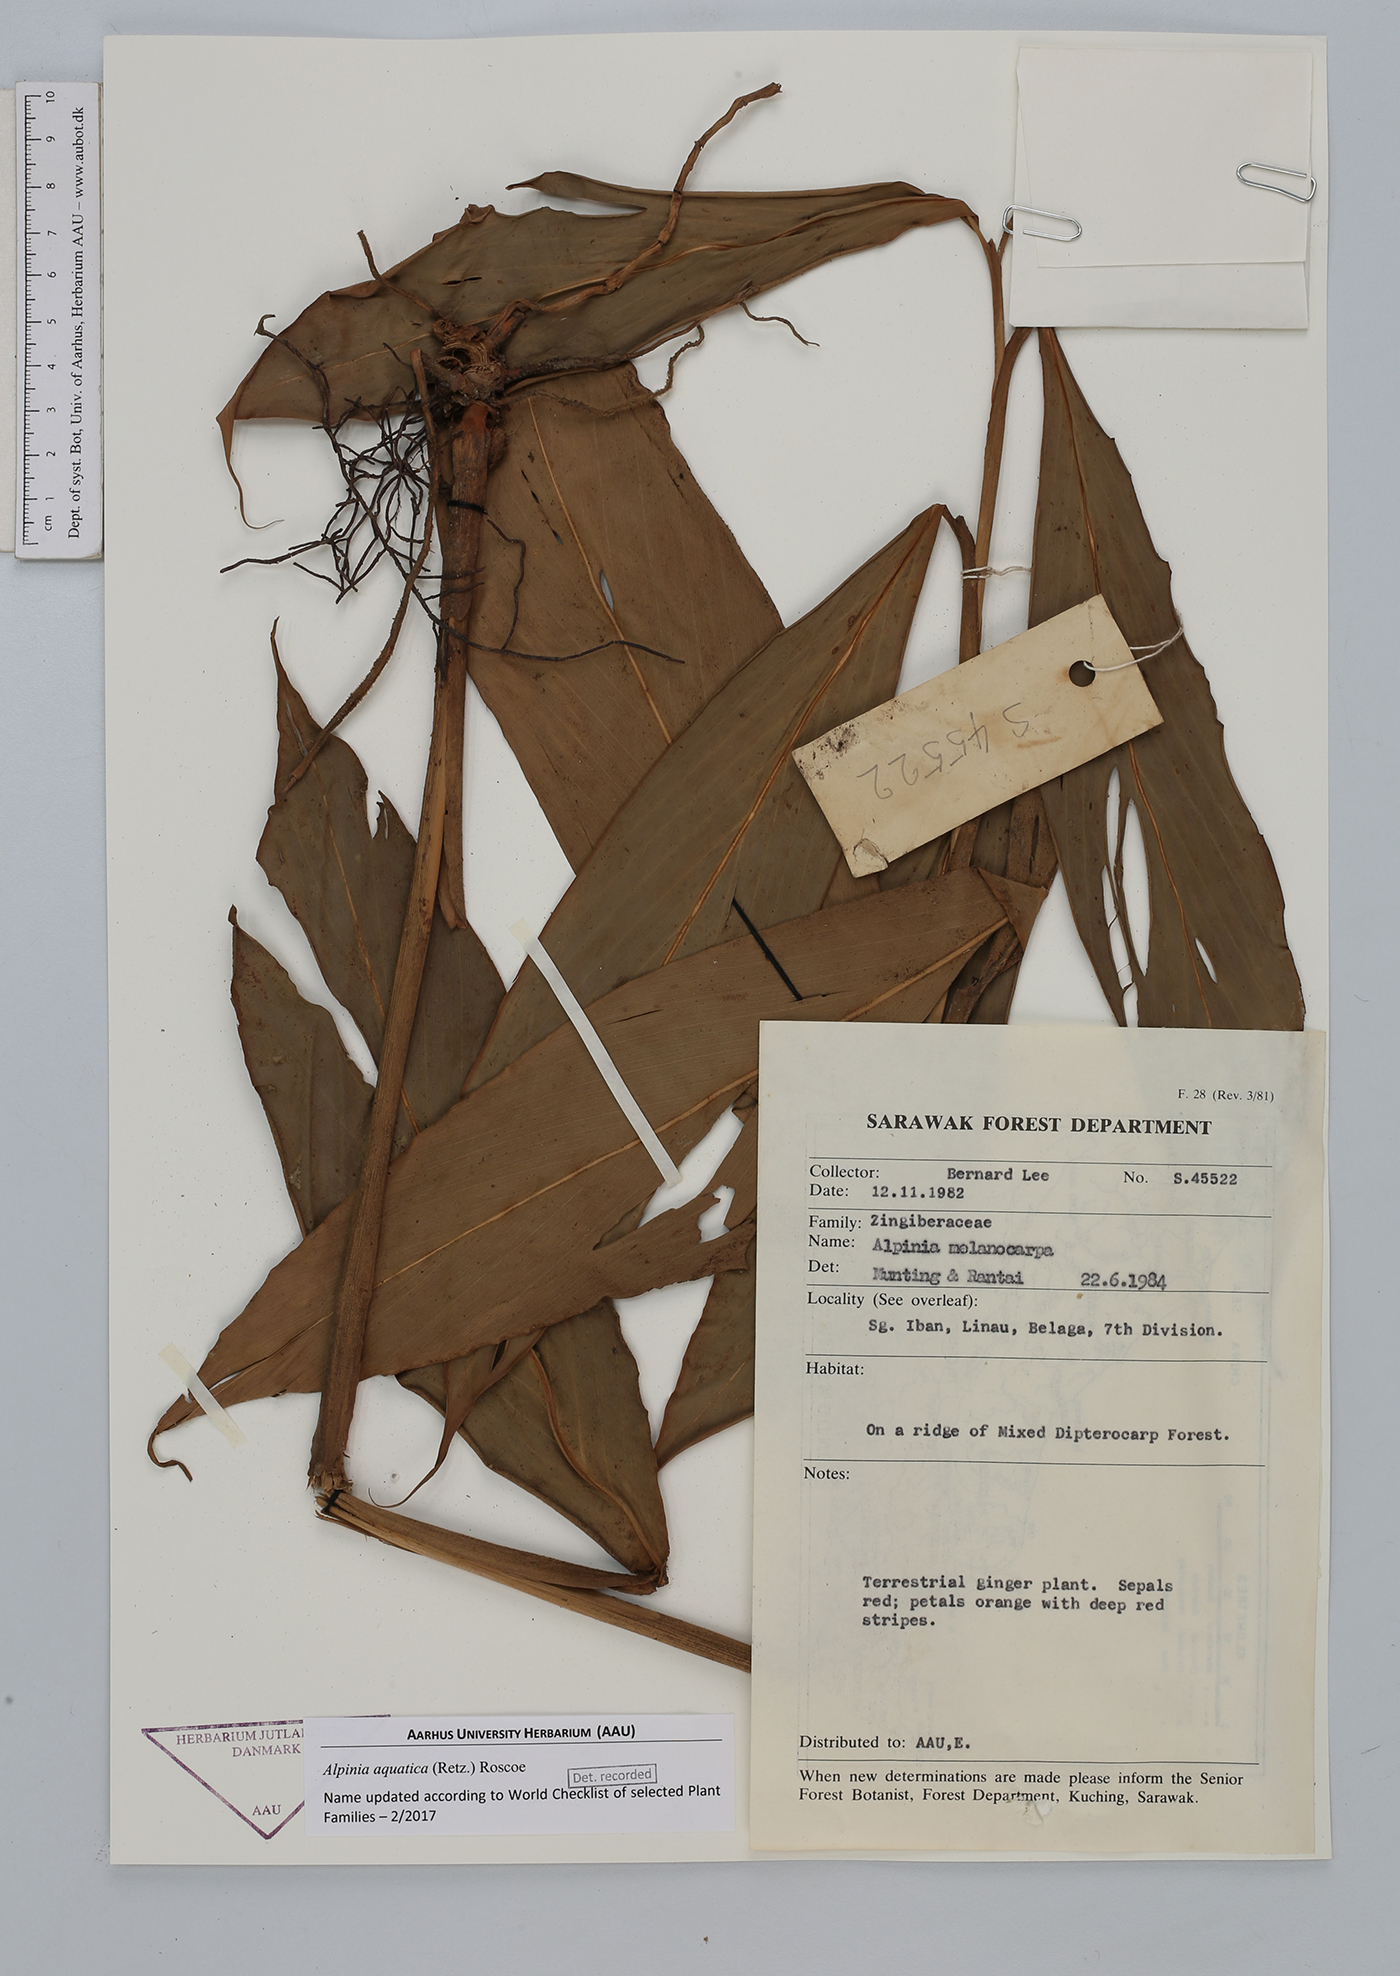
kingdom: Plantae
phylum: Tracheophyta
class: Liliopsida
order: Zingiberales
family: Zingiberaceae
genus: Alpinia
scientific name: Alpinia aquatica
